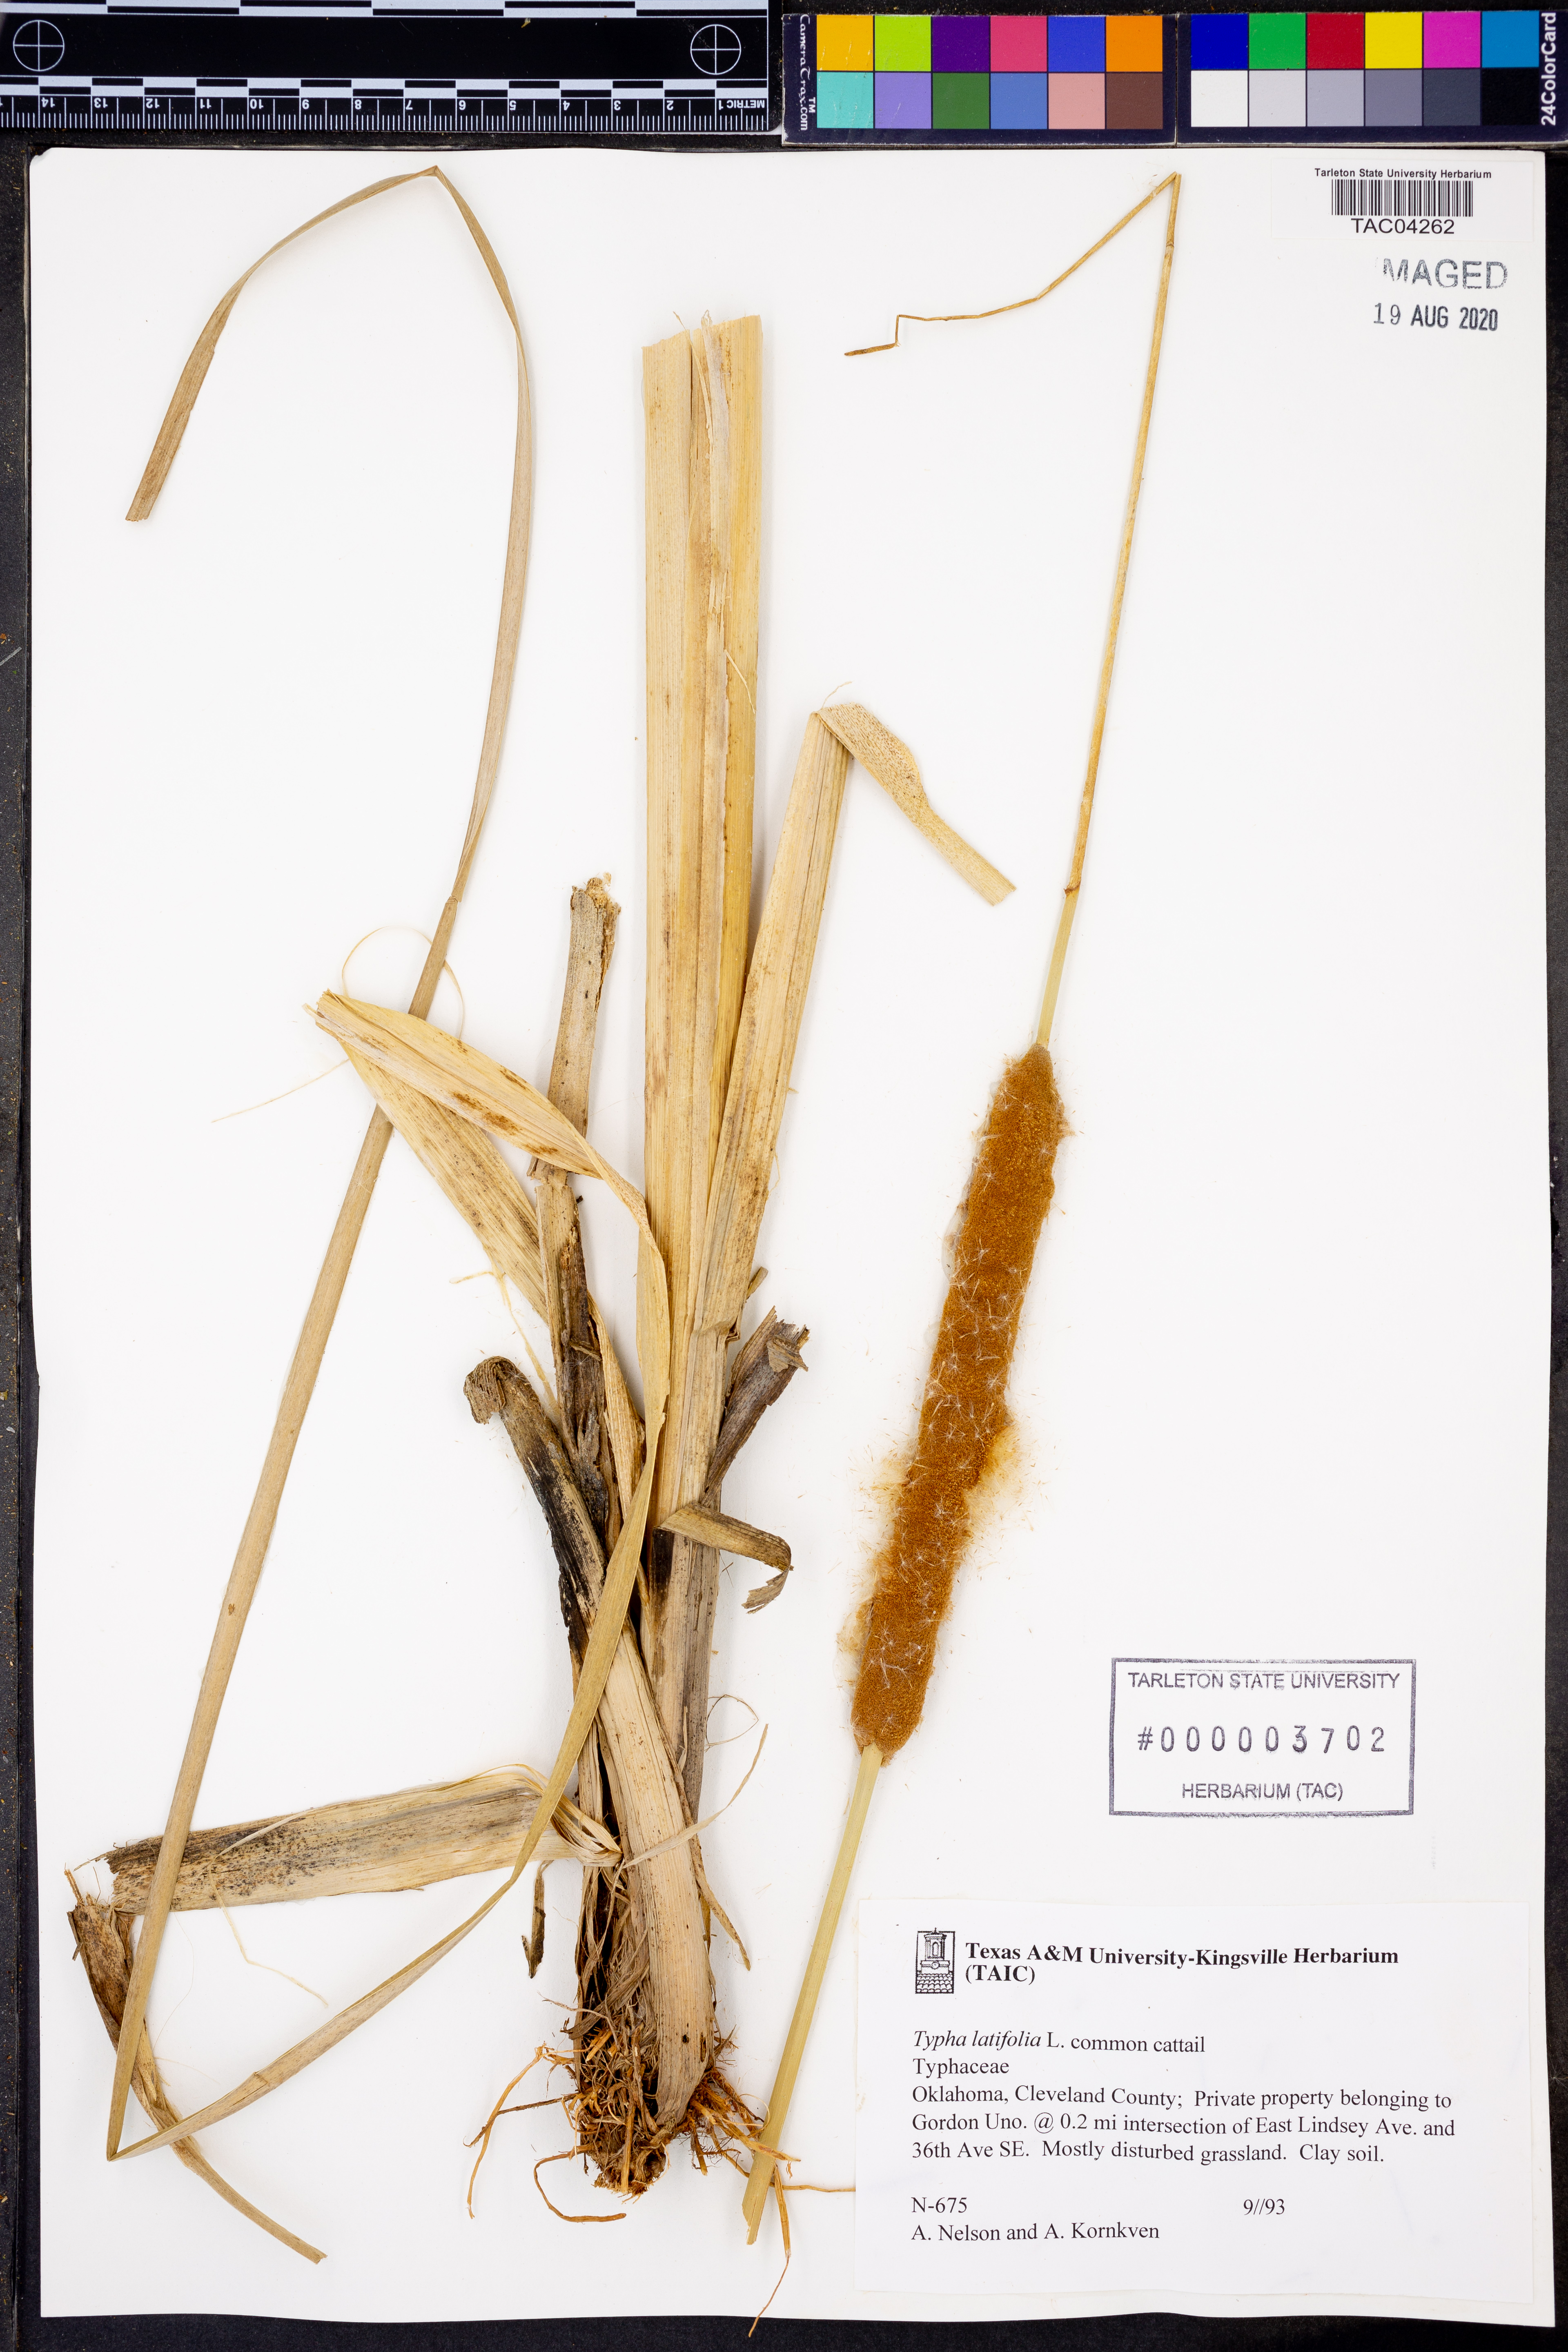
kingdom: Plantae
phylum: Tracheophyta
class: Liliopsida
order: Poales
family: Typhaceae
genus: Typha
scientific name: Typha latifolia
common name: Broadleaf cattail
